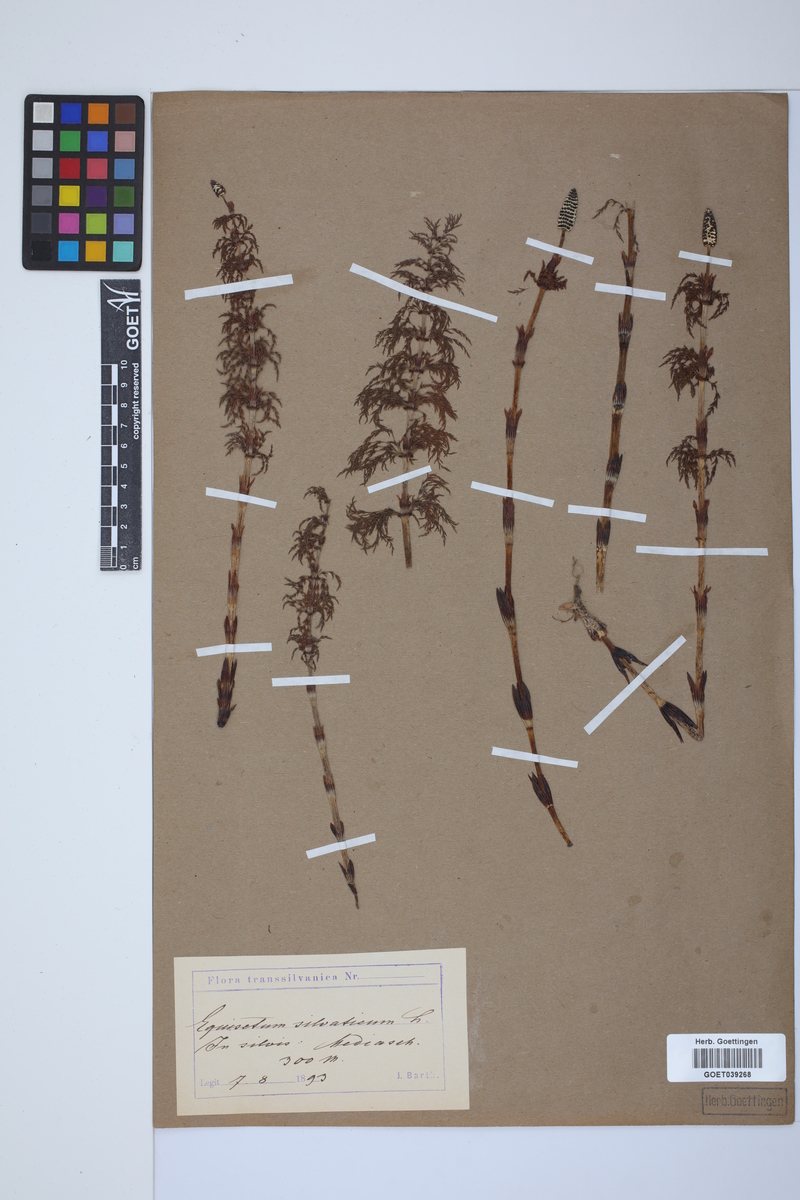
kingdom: Plantae
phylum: Tracheophyta
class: Polypodiopsida
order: Equisetales
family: Equisetaceae
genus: Equisetum
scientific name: Equisetum sylvaticum
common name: Wood horsetail
